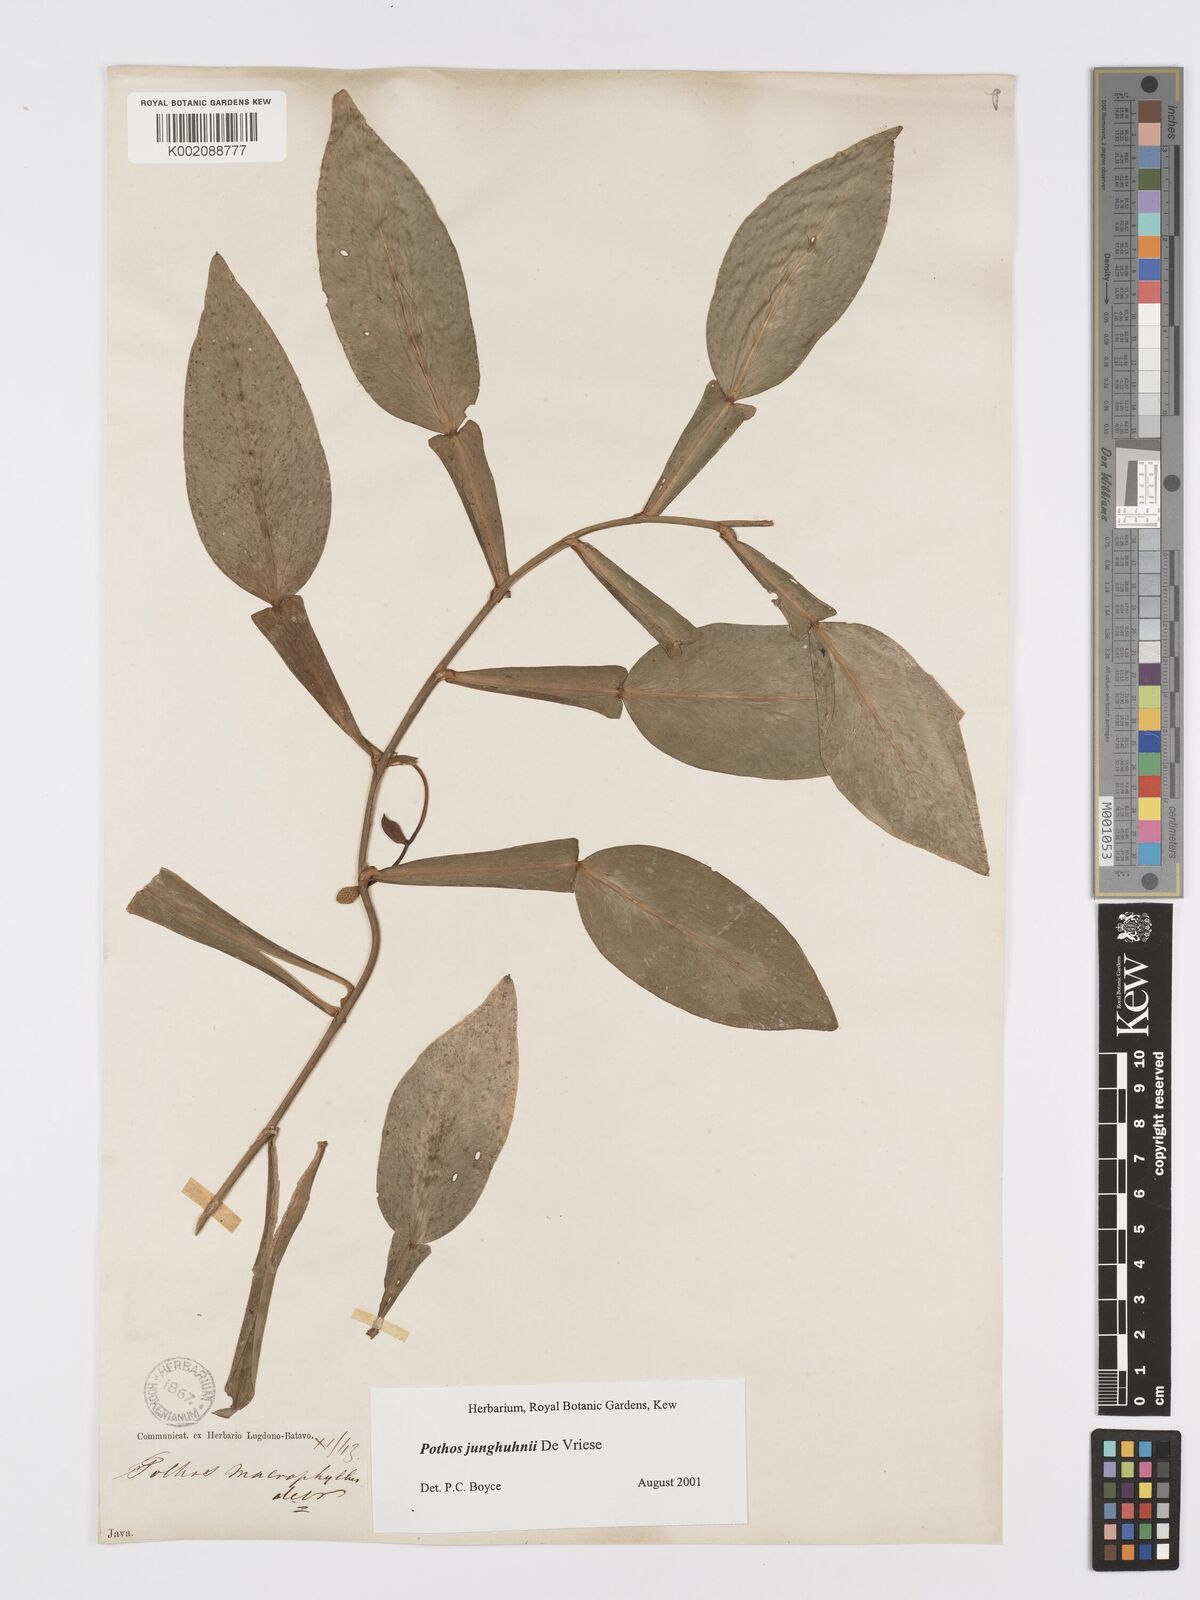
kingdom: Plantae
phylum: Tracheophyta
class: Liliopsida
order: Alismatales
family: Araceae
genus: Pothos
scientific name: Pothos junghuhnii
